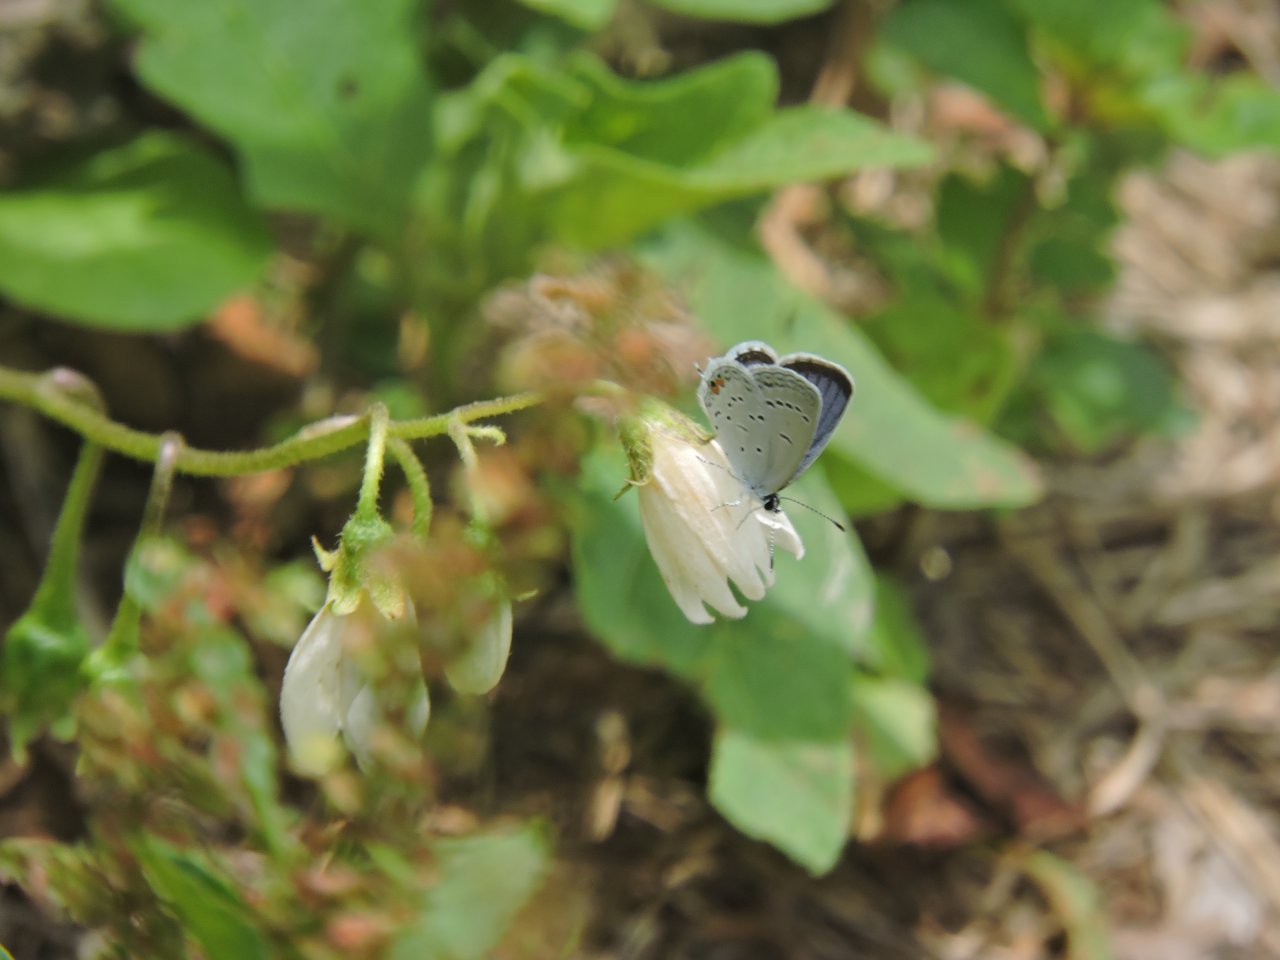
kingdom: Animalia
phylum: Arthropoda
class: Insecta
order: Lepidoptera
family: Lycaenidae
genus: Elkalyce
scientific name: Elkalyce comyntas
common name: Eastern Tailed-Blue
